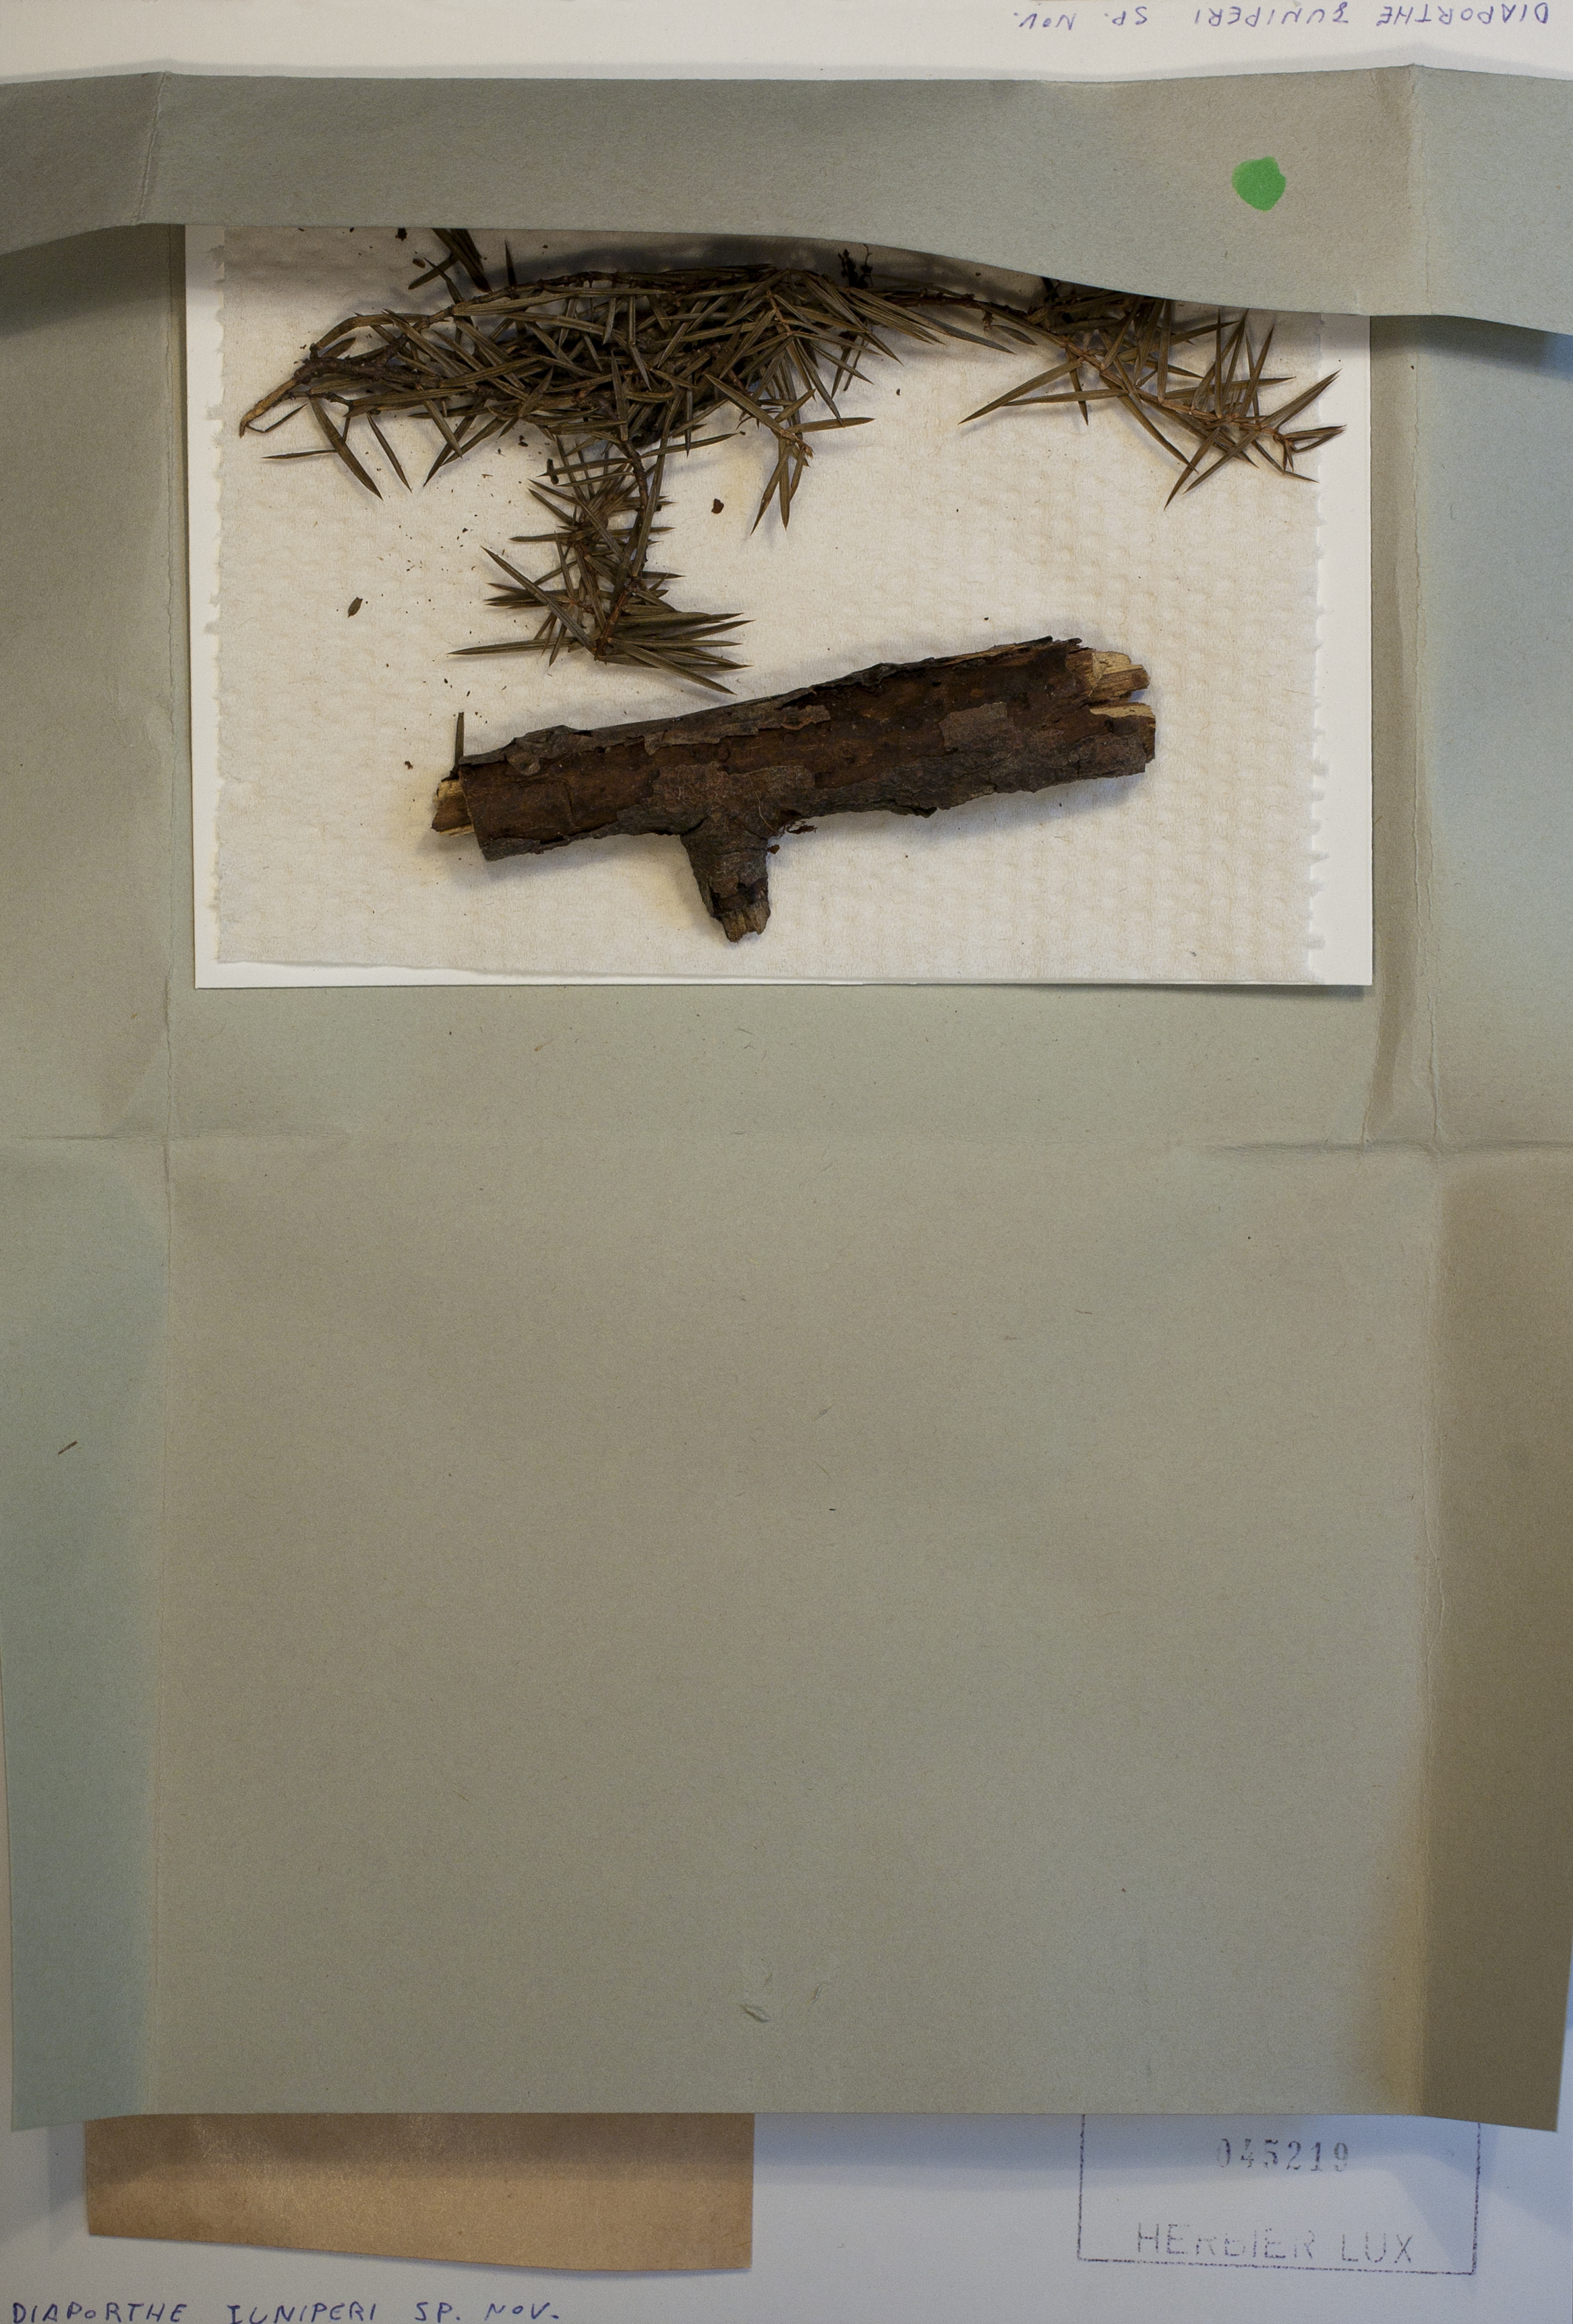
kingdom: Fungi
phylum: Ascomycota
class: Sordariomycetes
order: Diaporthales
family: Diaporthaceae
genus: Diaporthe
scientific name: Diaporthe juniperi
